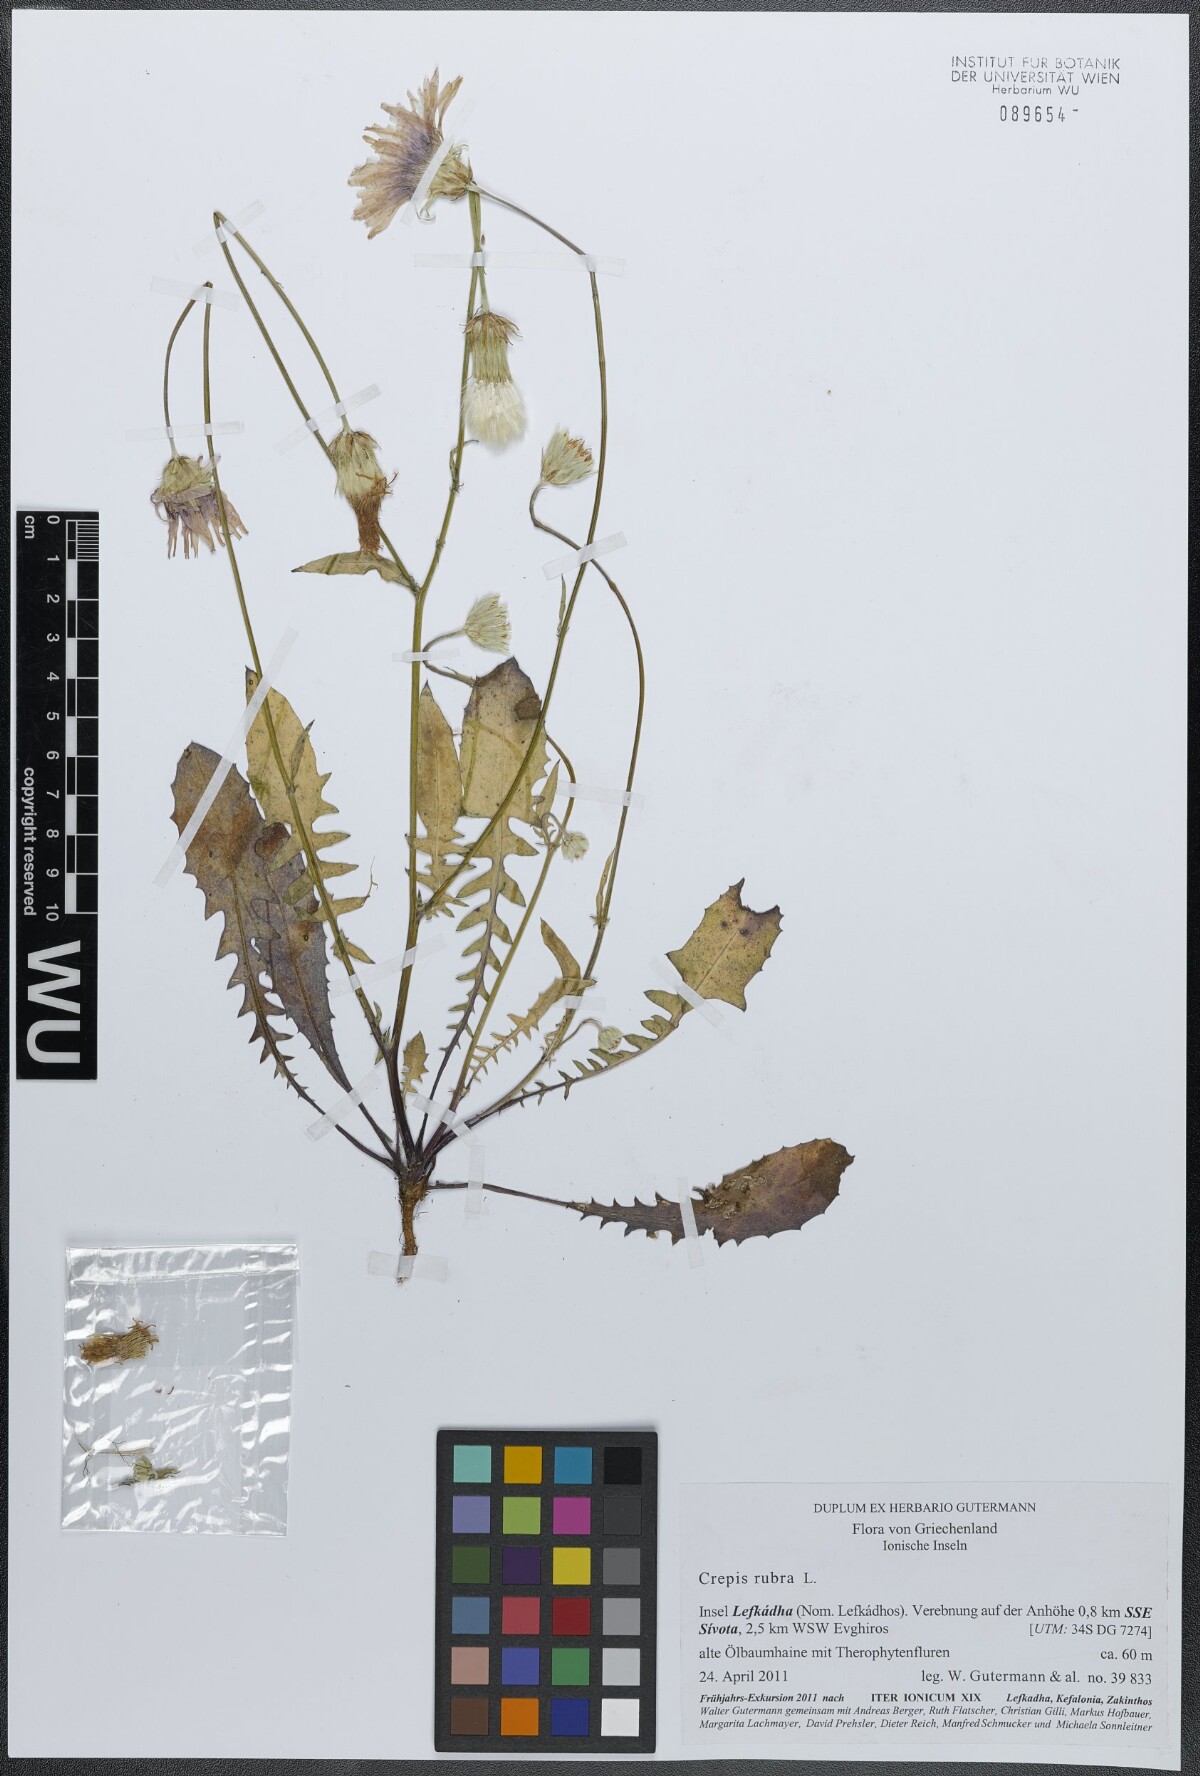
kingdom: Plantae
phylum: Tracheophyta
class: Magnoliopsida
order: Asterales
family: Asteraceae
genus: Crepis
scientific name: Crepis rubra
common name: Pink hawk's-beard
